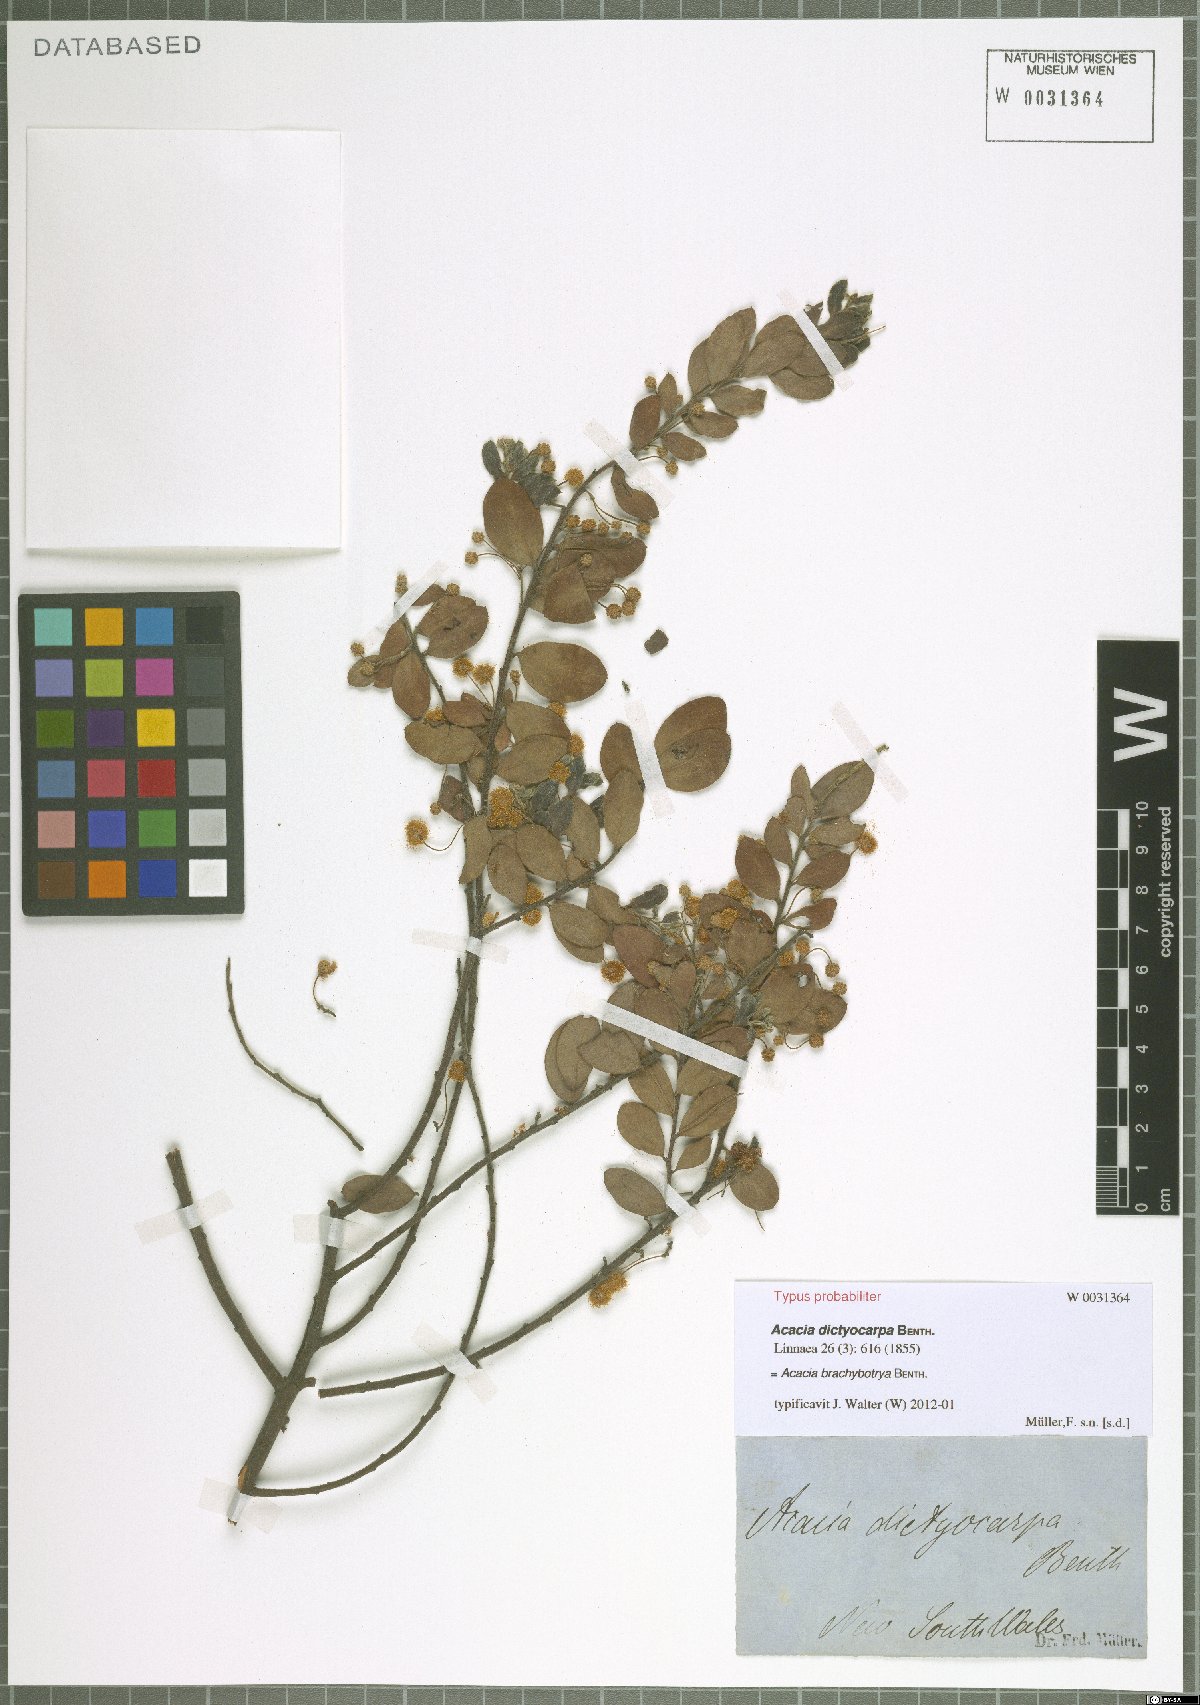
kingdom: Plantae
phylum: Tracheophyta
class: Magnoliopsida
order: Fabales
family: Fabaceae
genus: Acacia
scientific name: Acacia brachybotrya
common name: Grey mulga
